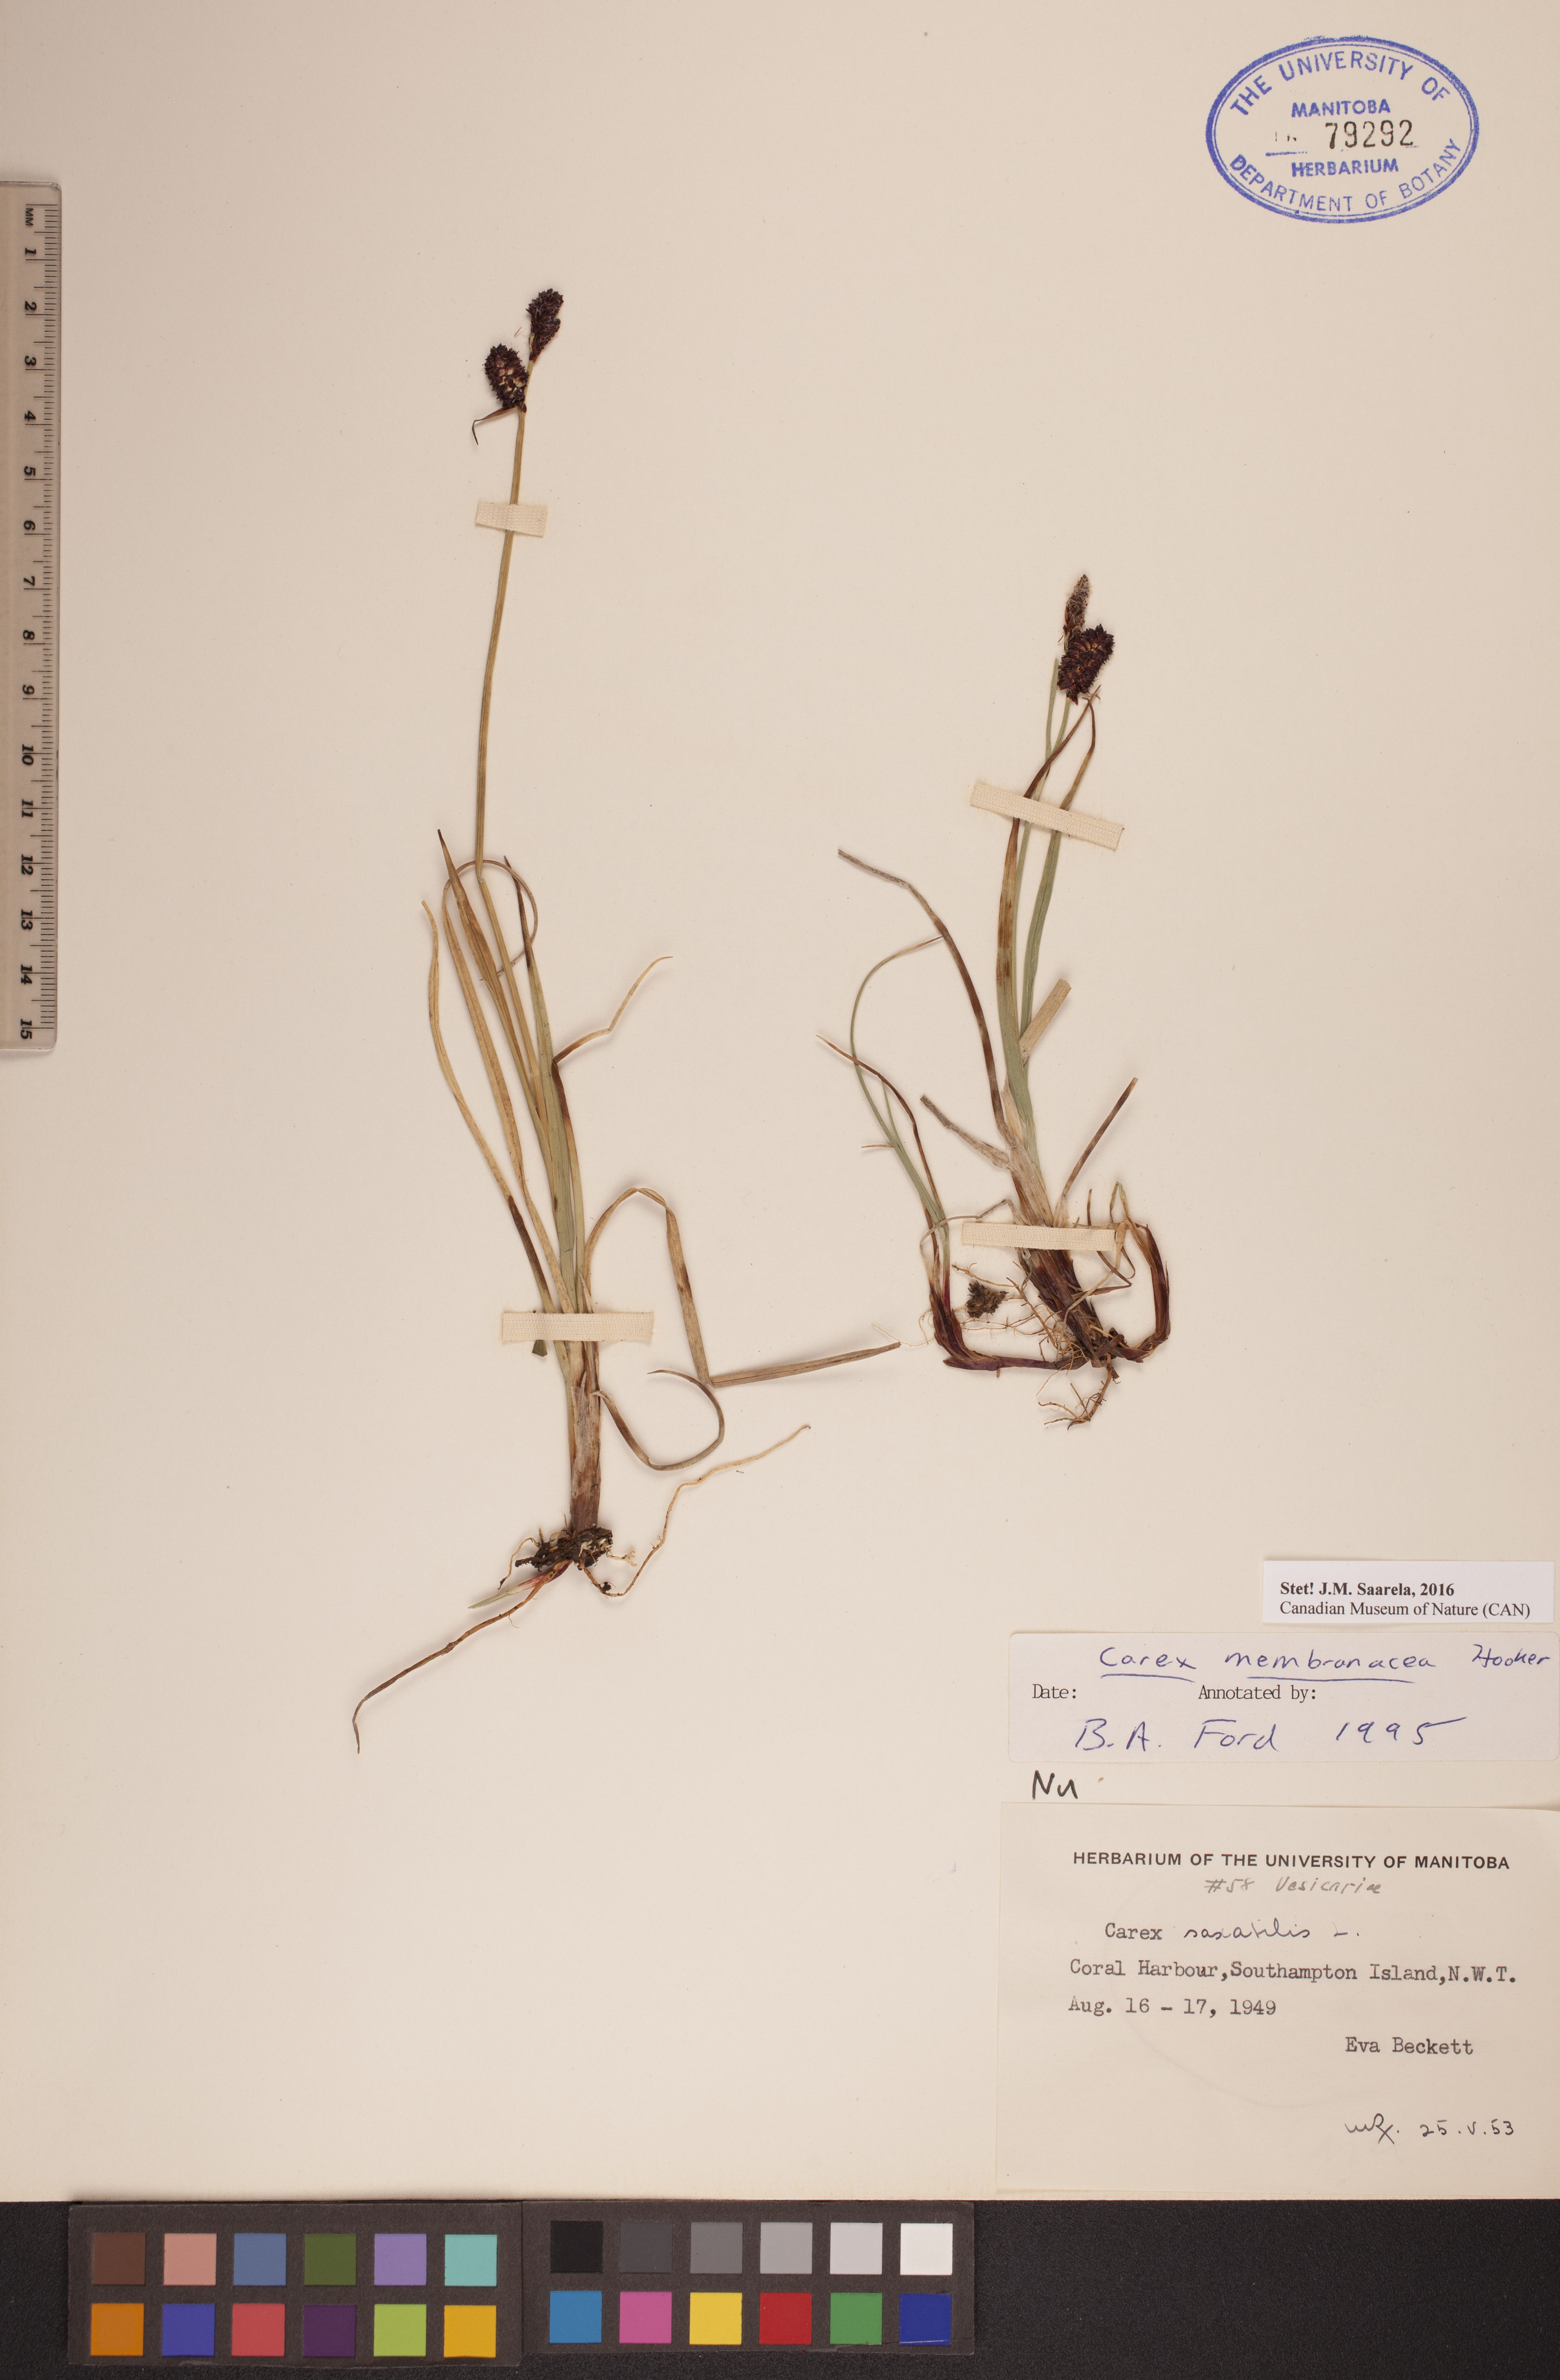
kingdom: Plantae
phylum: Tracheophyta
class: Liliopsida
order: Poales
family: Cyperaceae
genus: Carex
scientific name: Carex membranacea
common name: Fragile sedge
